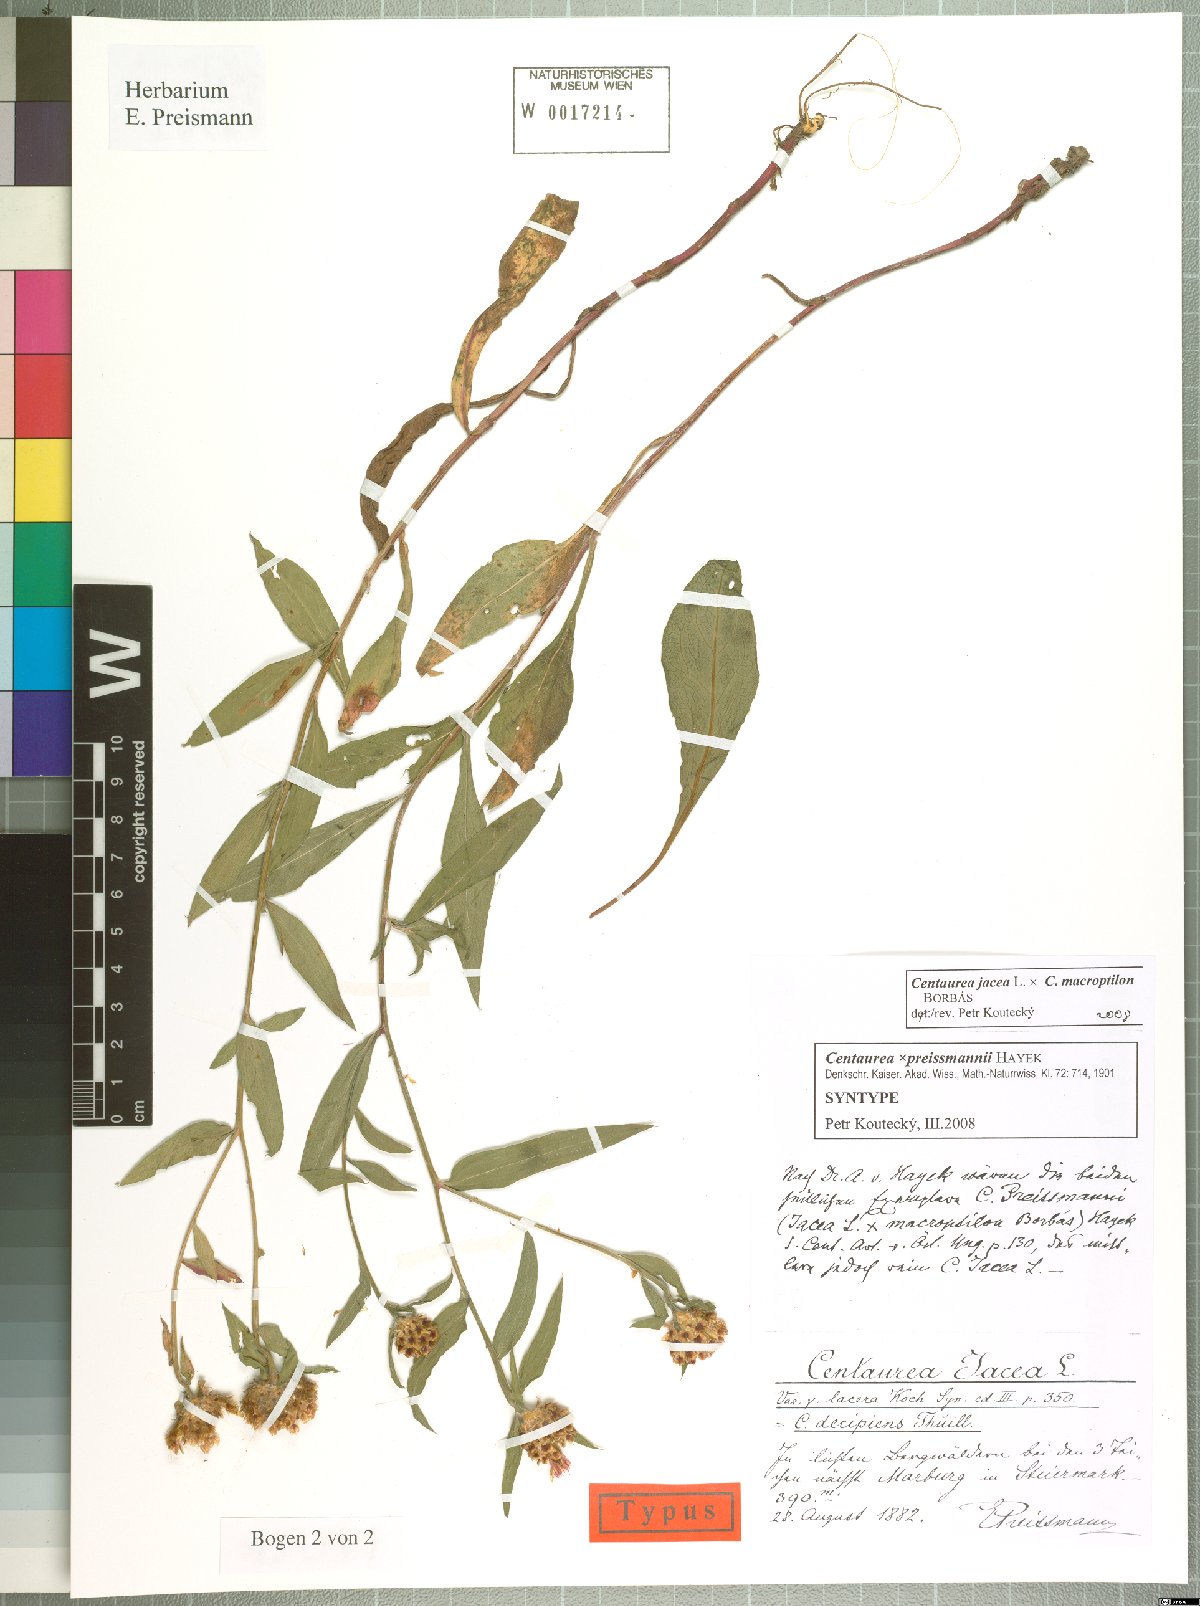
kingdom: Plantae
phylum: Tracheophyta
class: Magnoliopsida
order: Asterales
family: Asteraceae
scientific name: Asteraceae
